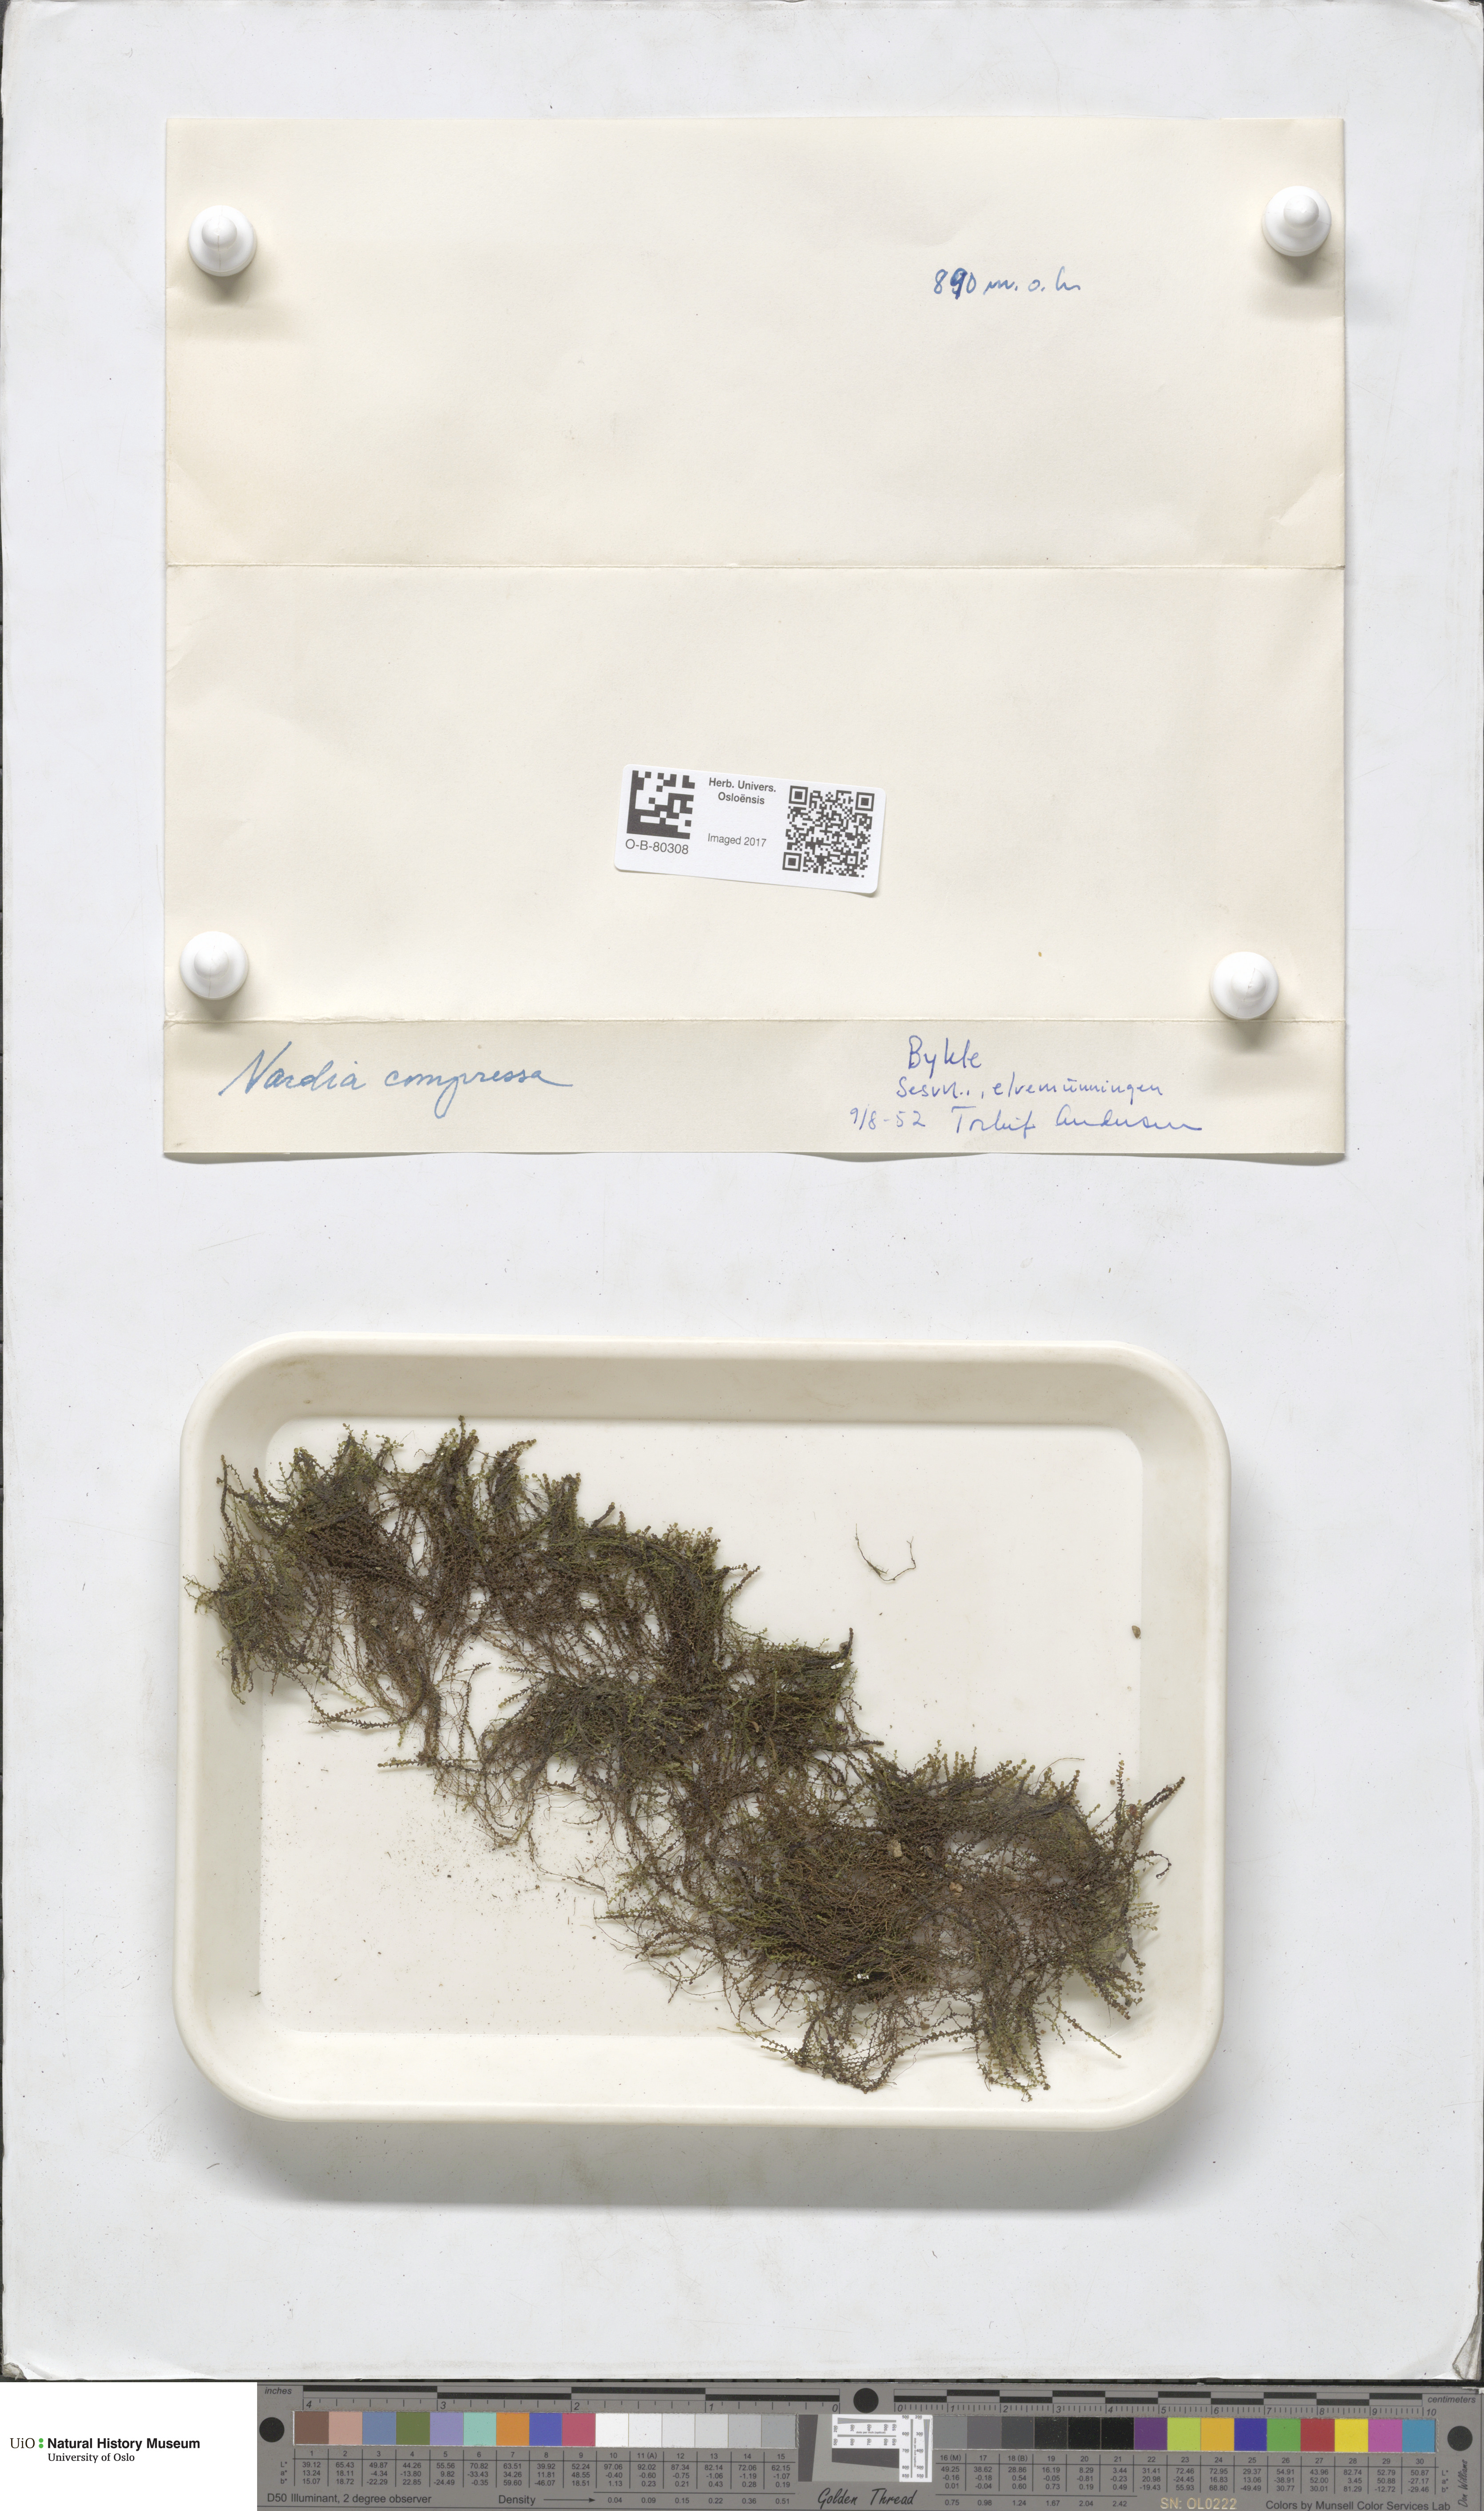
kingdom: Plantae
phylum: Marchantiophyta
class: Jungermanniopsida
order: Jungermanniales
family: Gymnomitriaceae
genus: Nardia
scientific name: Nardia compressa
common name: Compressed flapwort
